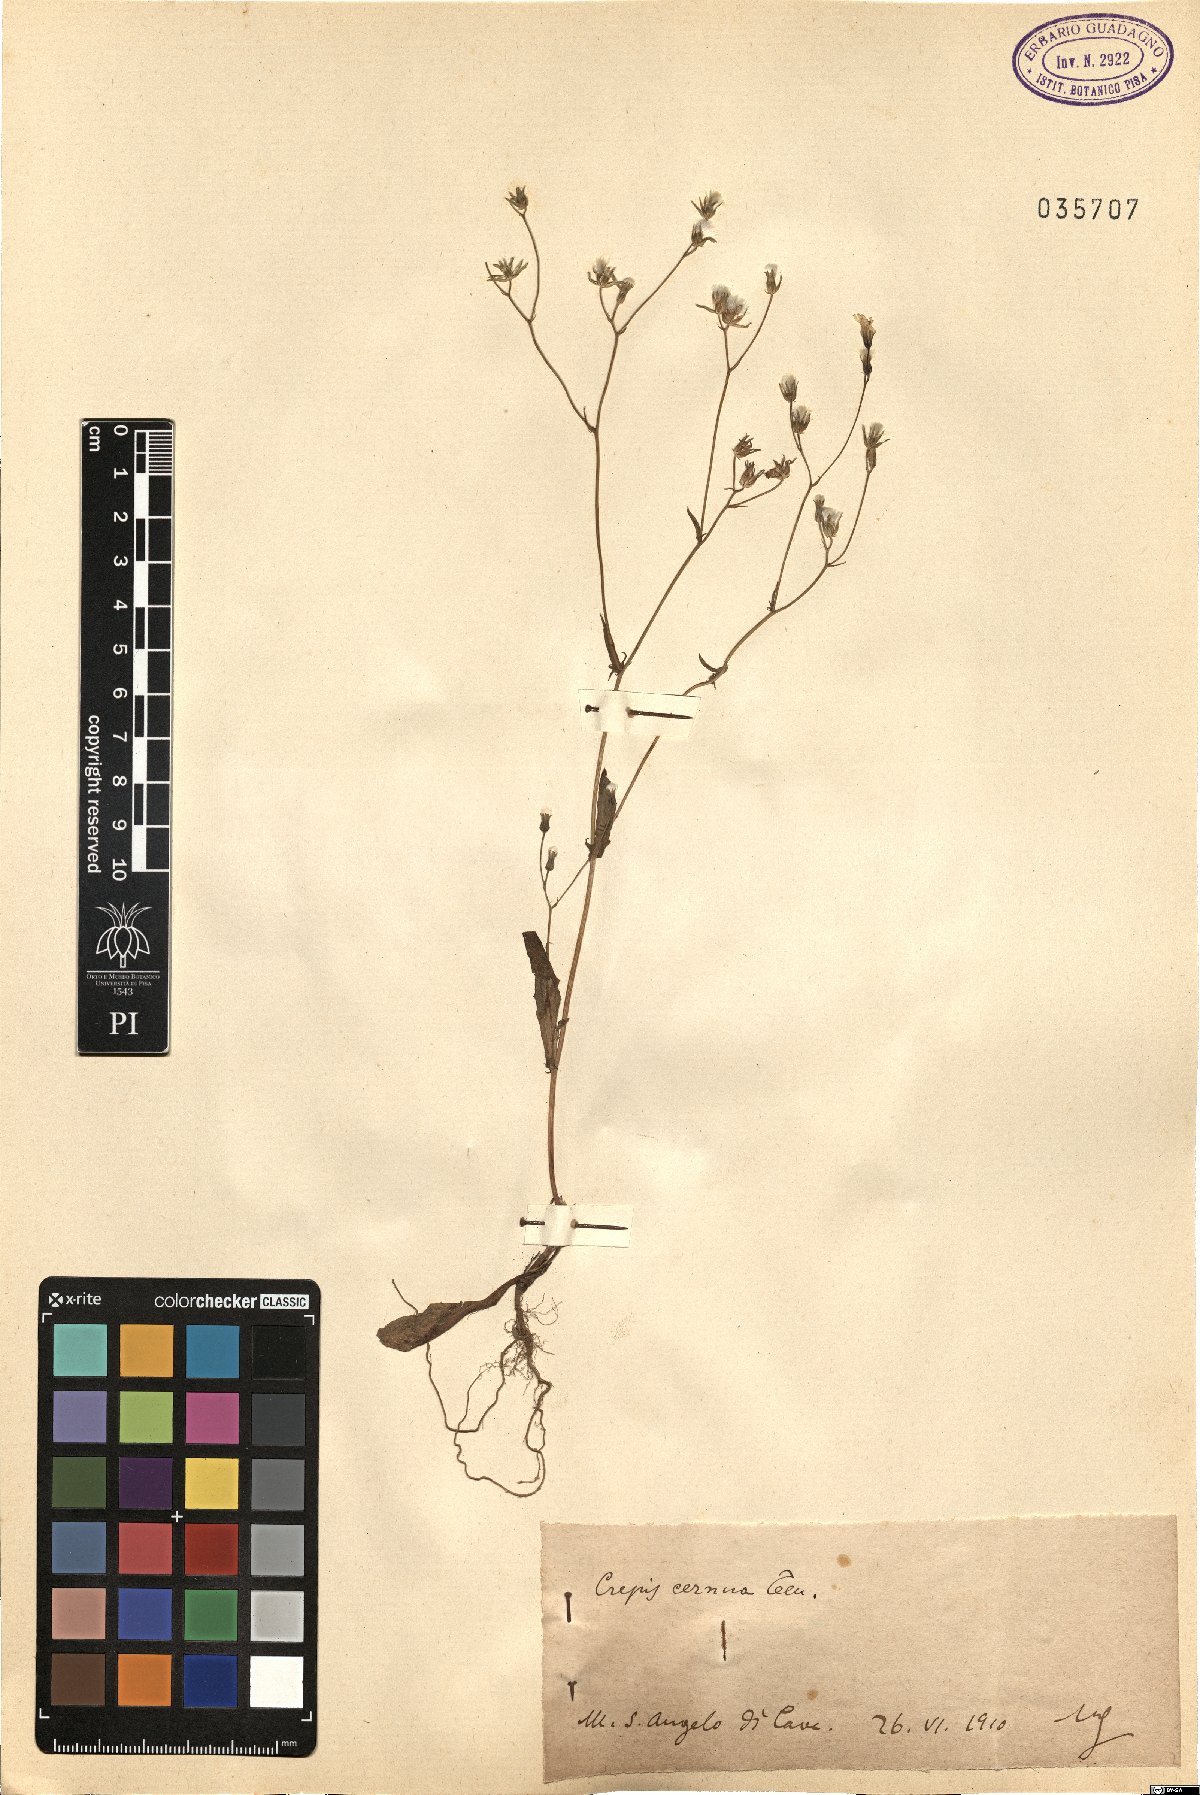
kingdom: Plantae
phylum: Tracheophyta
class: Magnoliopsida
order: Asterales
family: Asteraceae
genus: Crepis
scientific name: Crepis neglecta
